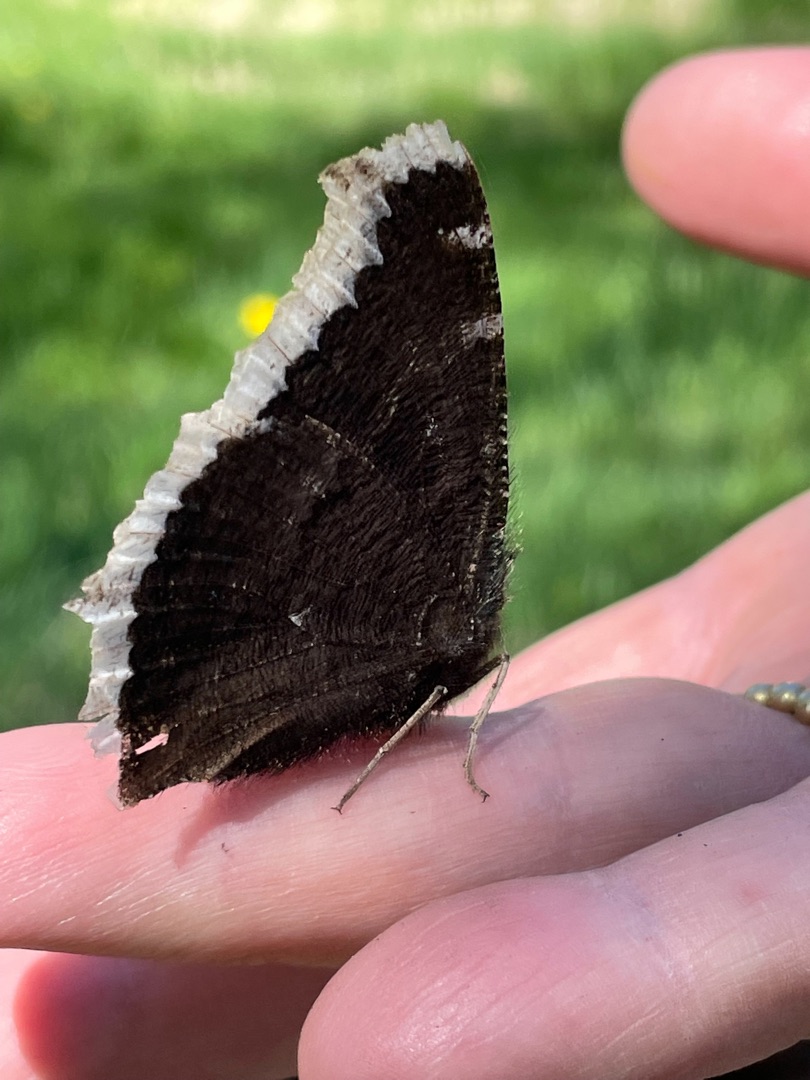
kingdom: Animalia
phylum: Arthropoda
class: Insecta
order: Lepidoptera
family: Nymphalidae
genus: Nymphalis
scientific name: Nymphalis antiopa
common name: Sørgekåbe
